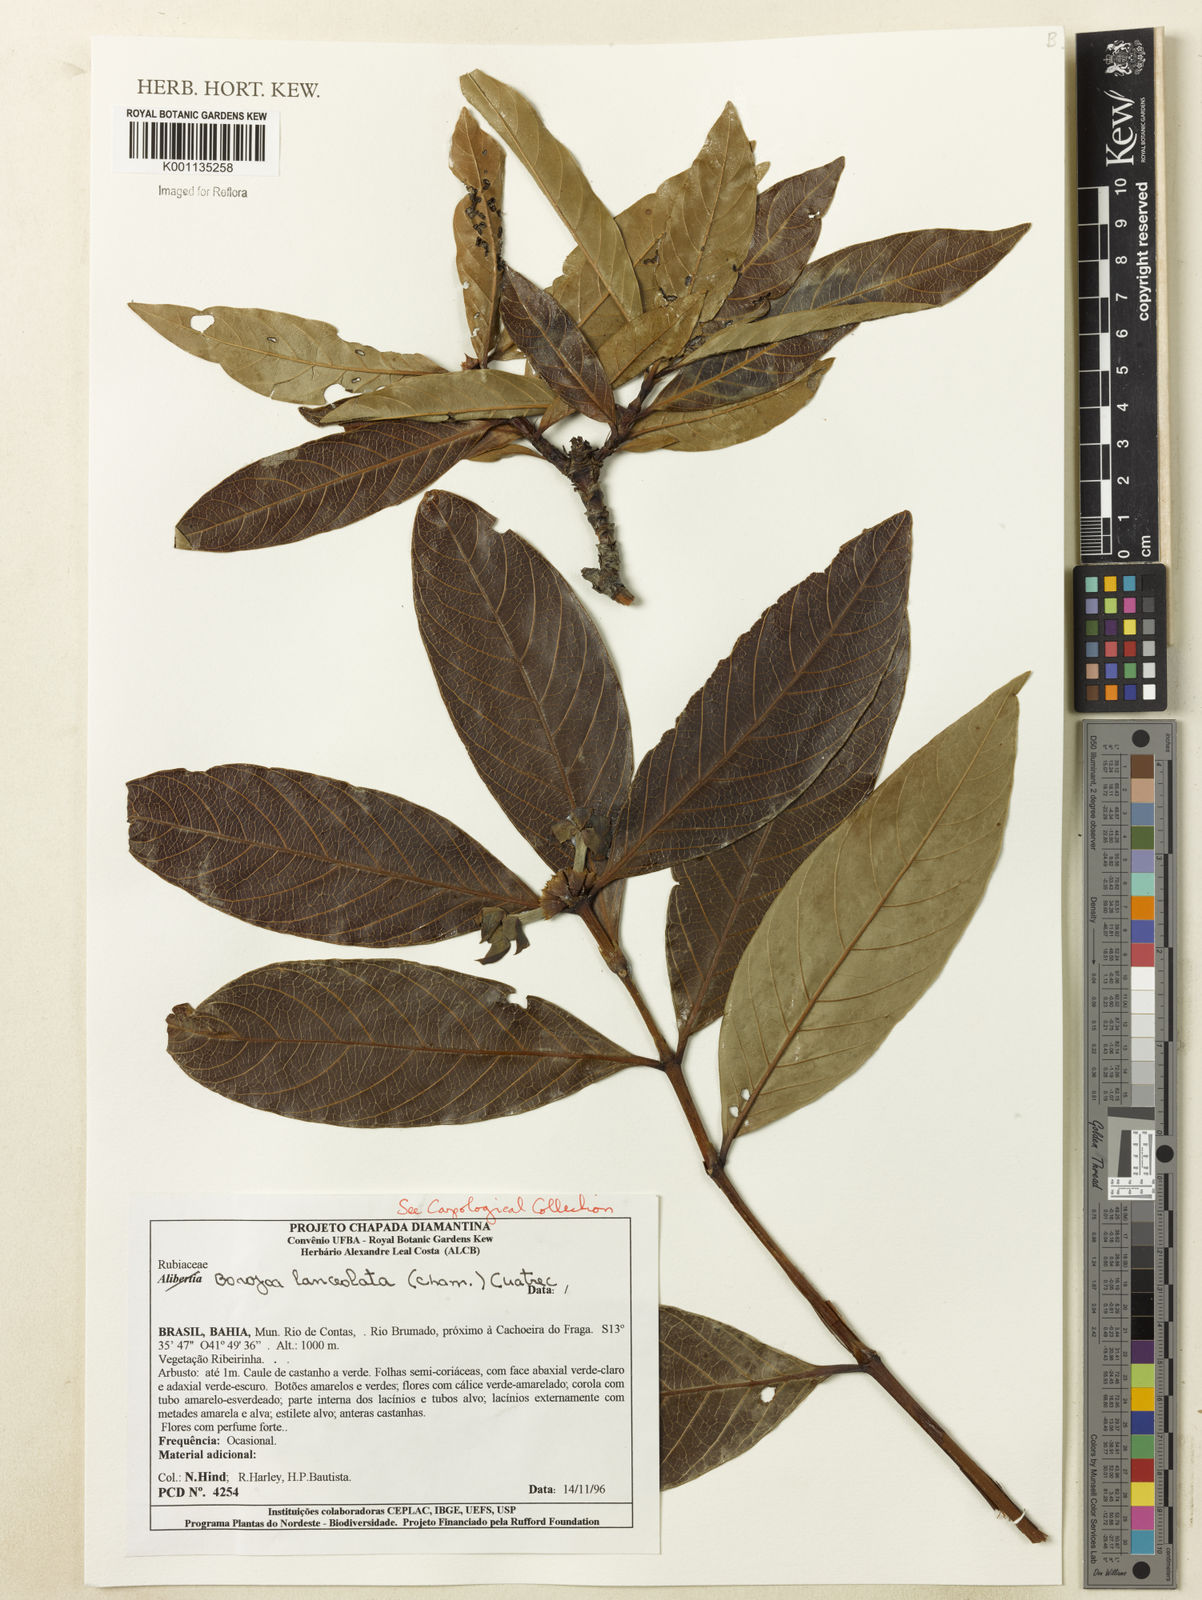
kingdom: Plantae
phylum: Tracheophyta
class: Magnoliopsida
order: Gentianales
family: Rubiaceae
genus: Alibertia
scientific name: Alibertia edulis
